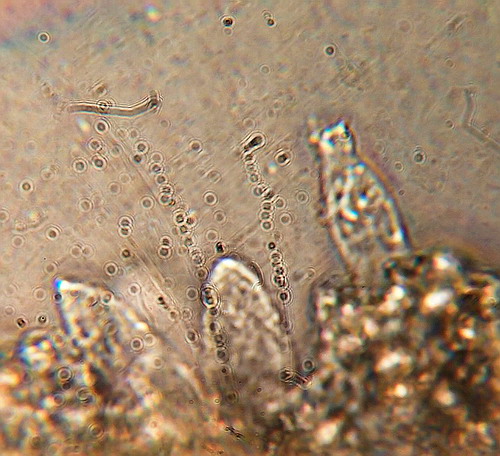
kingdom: Fungi
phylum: Basidiomycota
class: Agaricomycetes
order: Agaricales
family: Entolomataceae
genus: Entoloma
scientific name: Entoloma araneosum
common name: spindelvævs-rødblad
